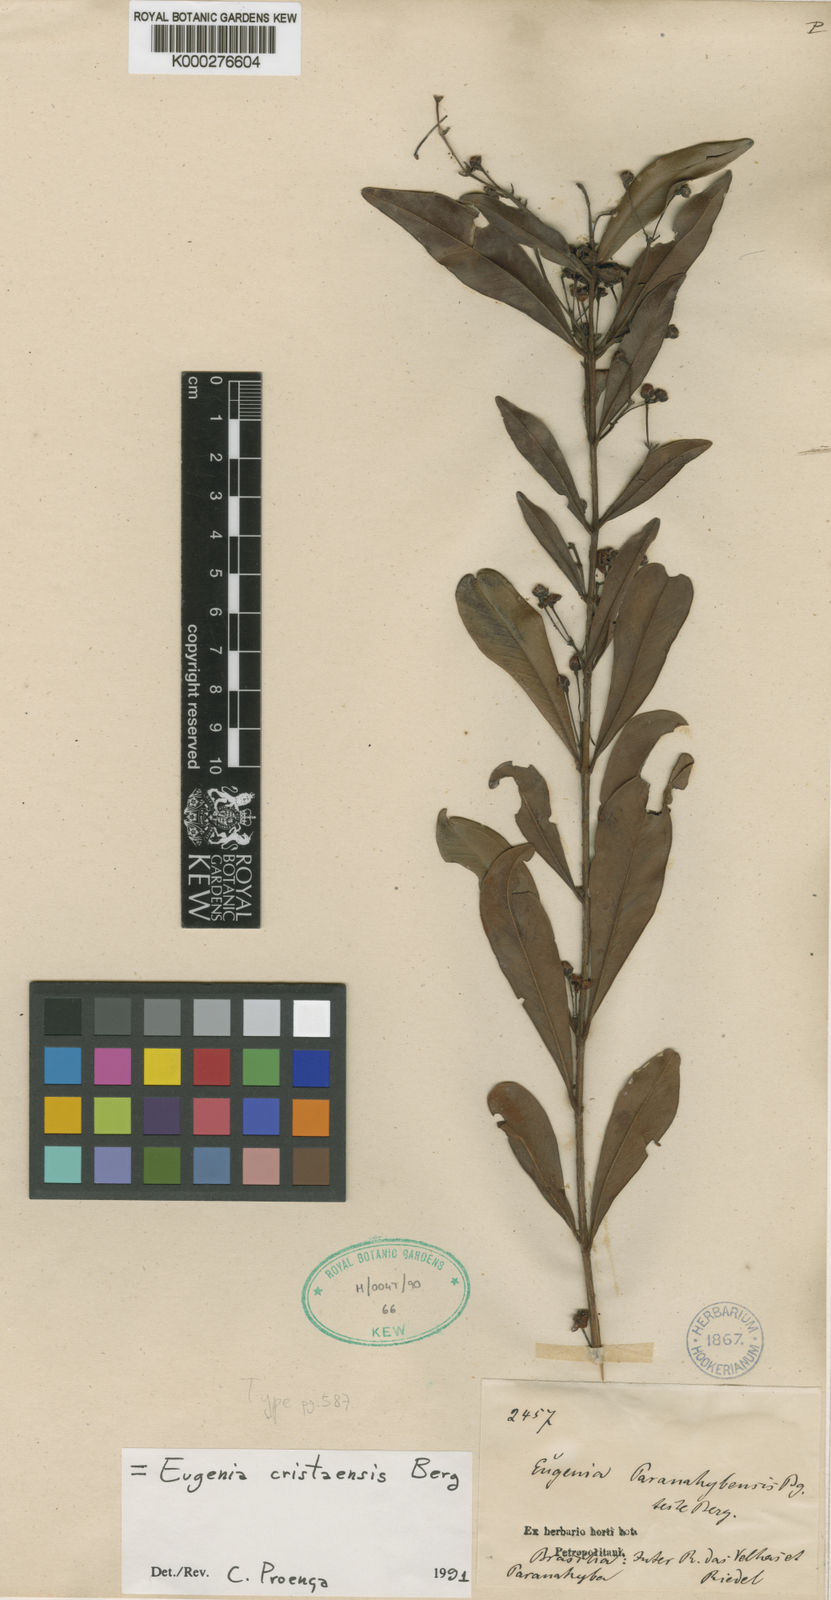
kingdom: Plantae
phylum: Tracheophyta
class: Magnoliopsida
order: Myrtales
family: Myrtaceae
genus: Eugenia
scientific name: Eugenia cristaensis
